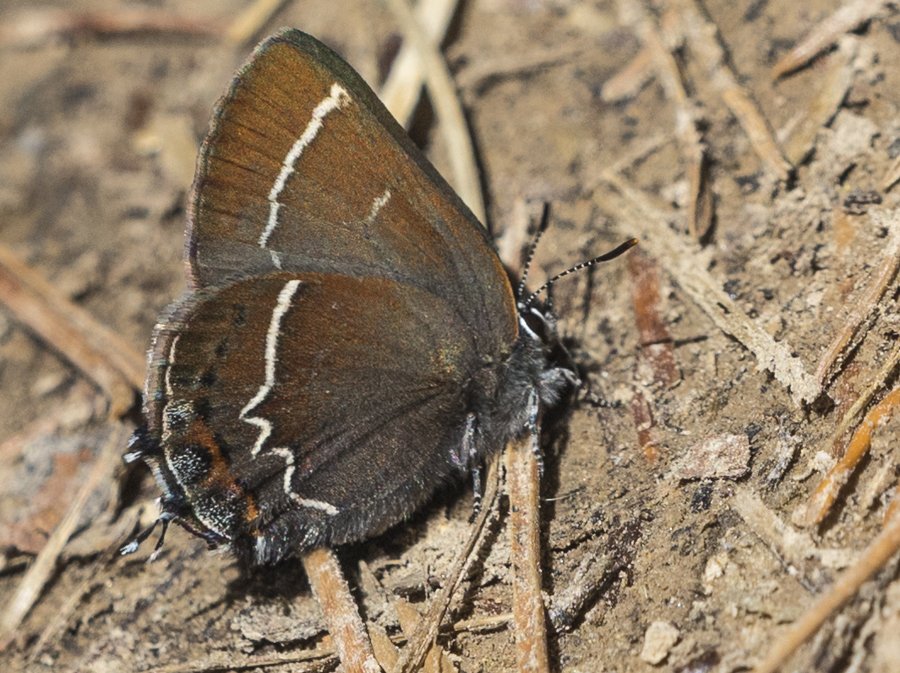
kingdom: Animalia
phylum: Arthropoda
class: Insecta
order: Lepidoptera
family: Lycaenidae
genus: Mitoura
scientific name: Mitoura spinetorum
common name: Thicket Hairstreak
